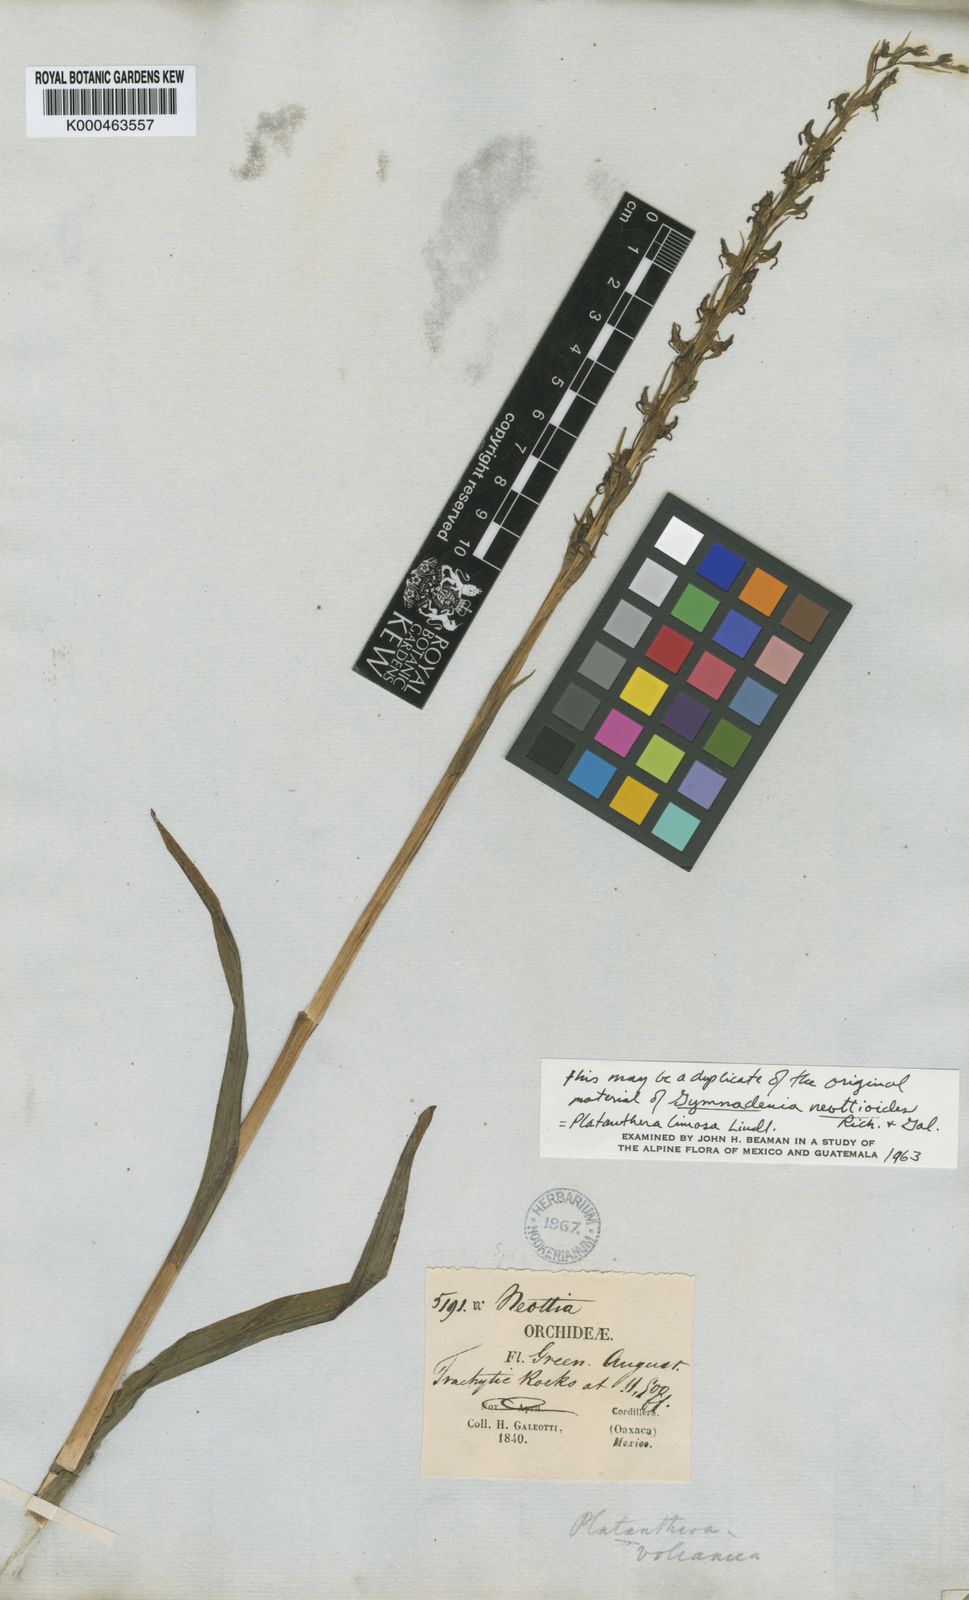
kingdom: Plantae
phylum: Tracheophyta
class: Liliopsida
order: Asparagales
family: Orchidaceae
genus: Coenoemersa
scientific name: Coenoemersa limosa
